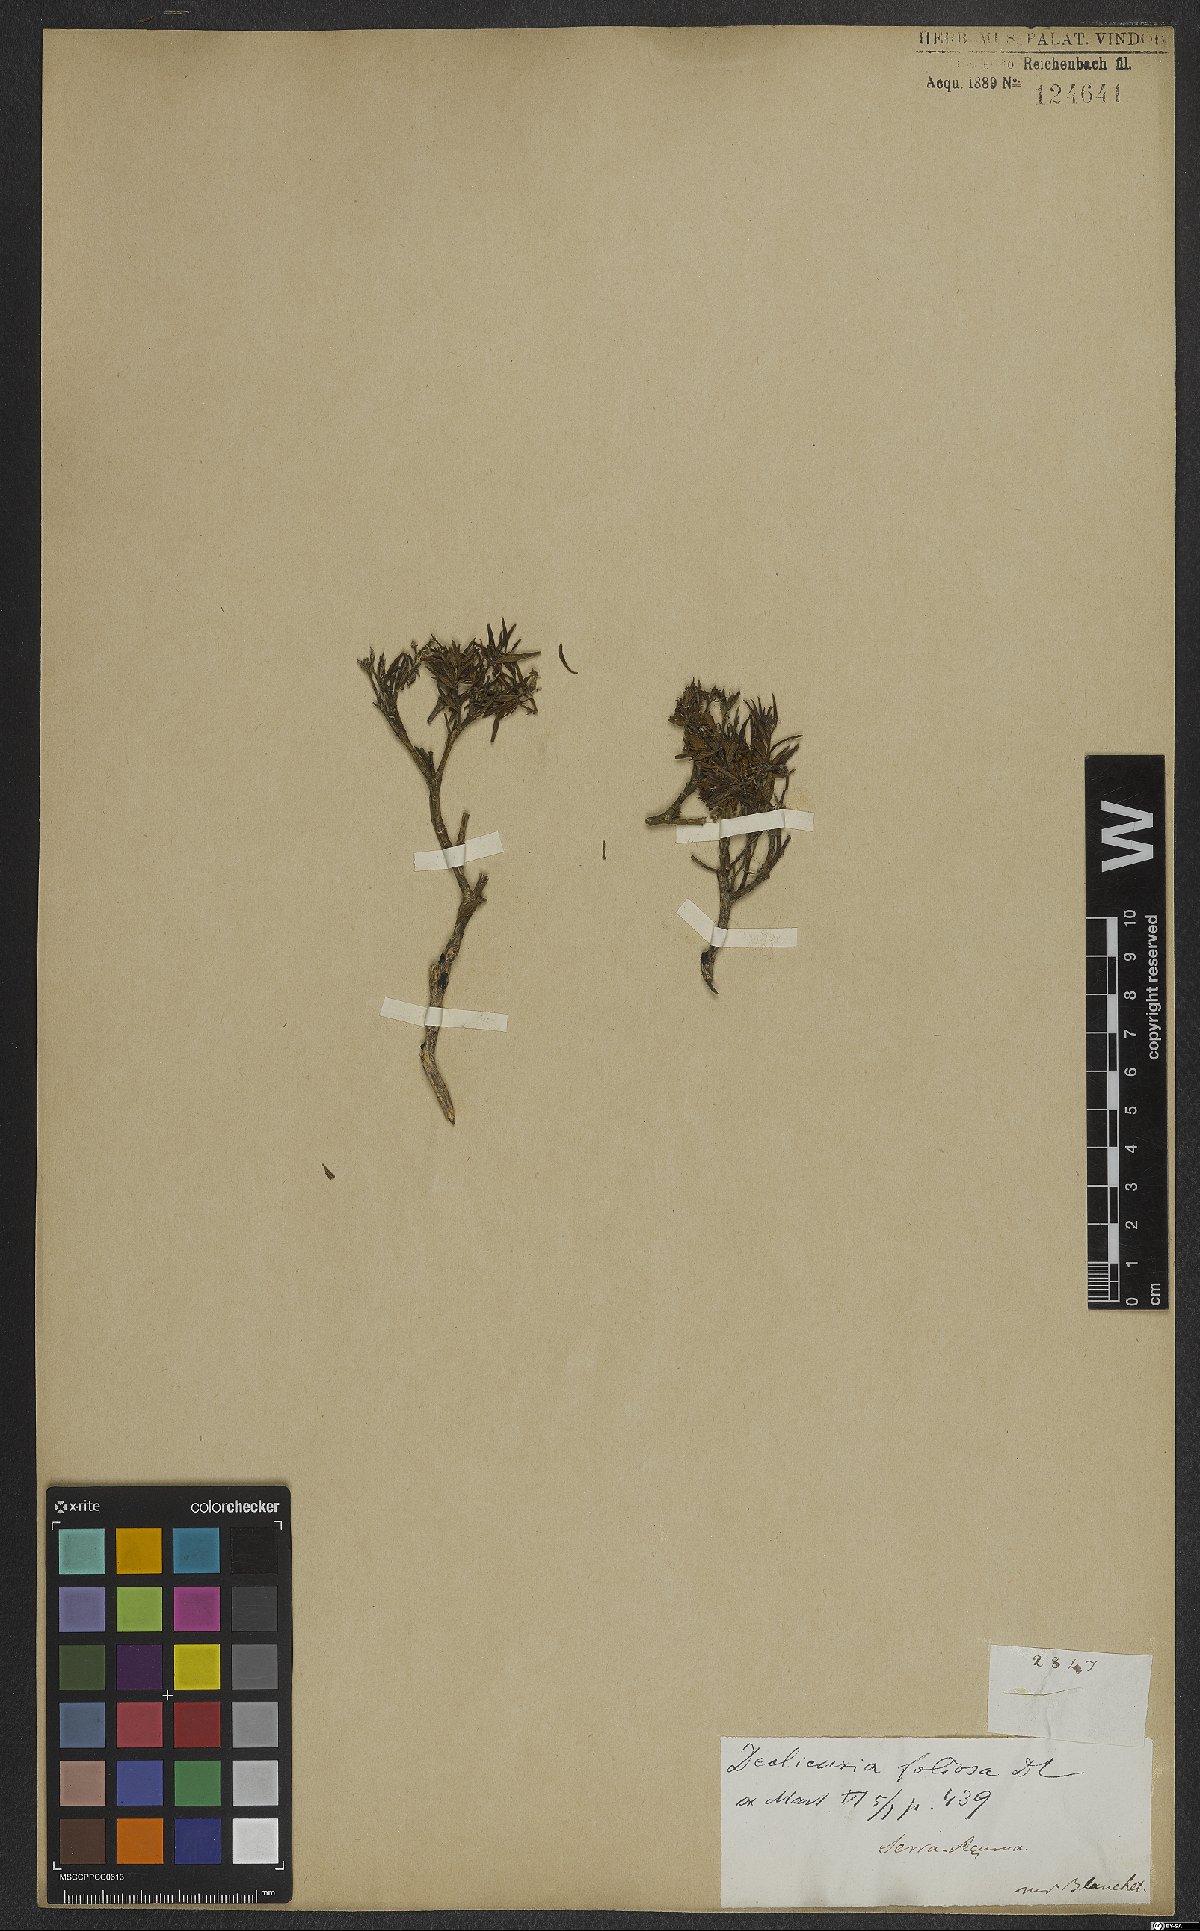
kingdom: Plantae
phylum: Tracheophyta
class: Magnoliopsida
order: Gentianales
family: Rubiaceae
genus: Declieuxia
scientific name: Declieuxia fruticosa
